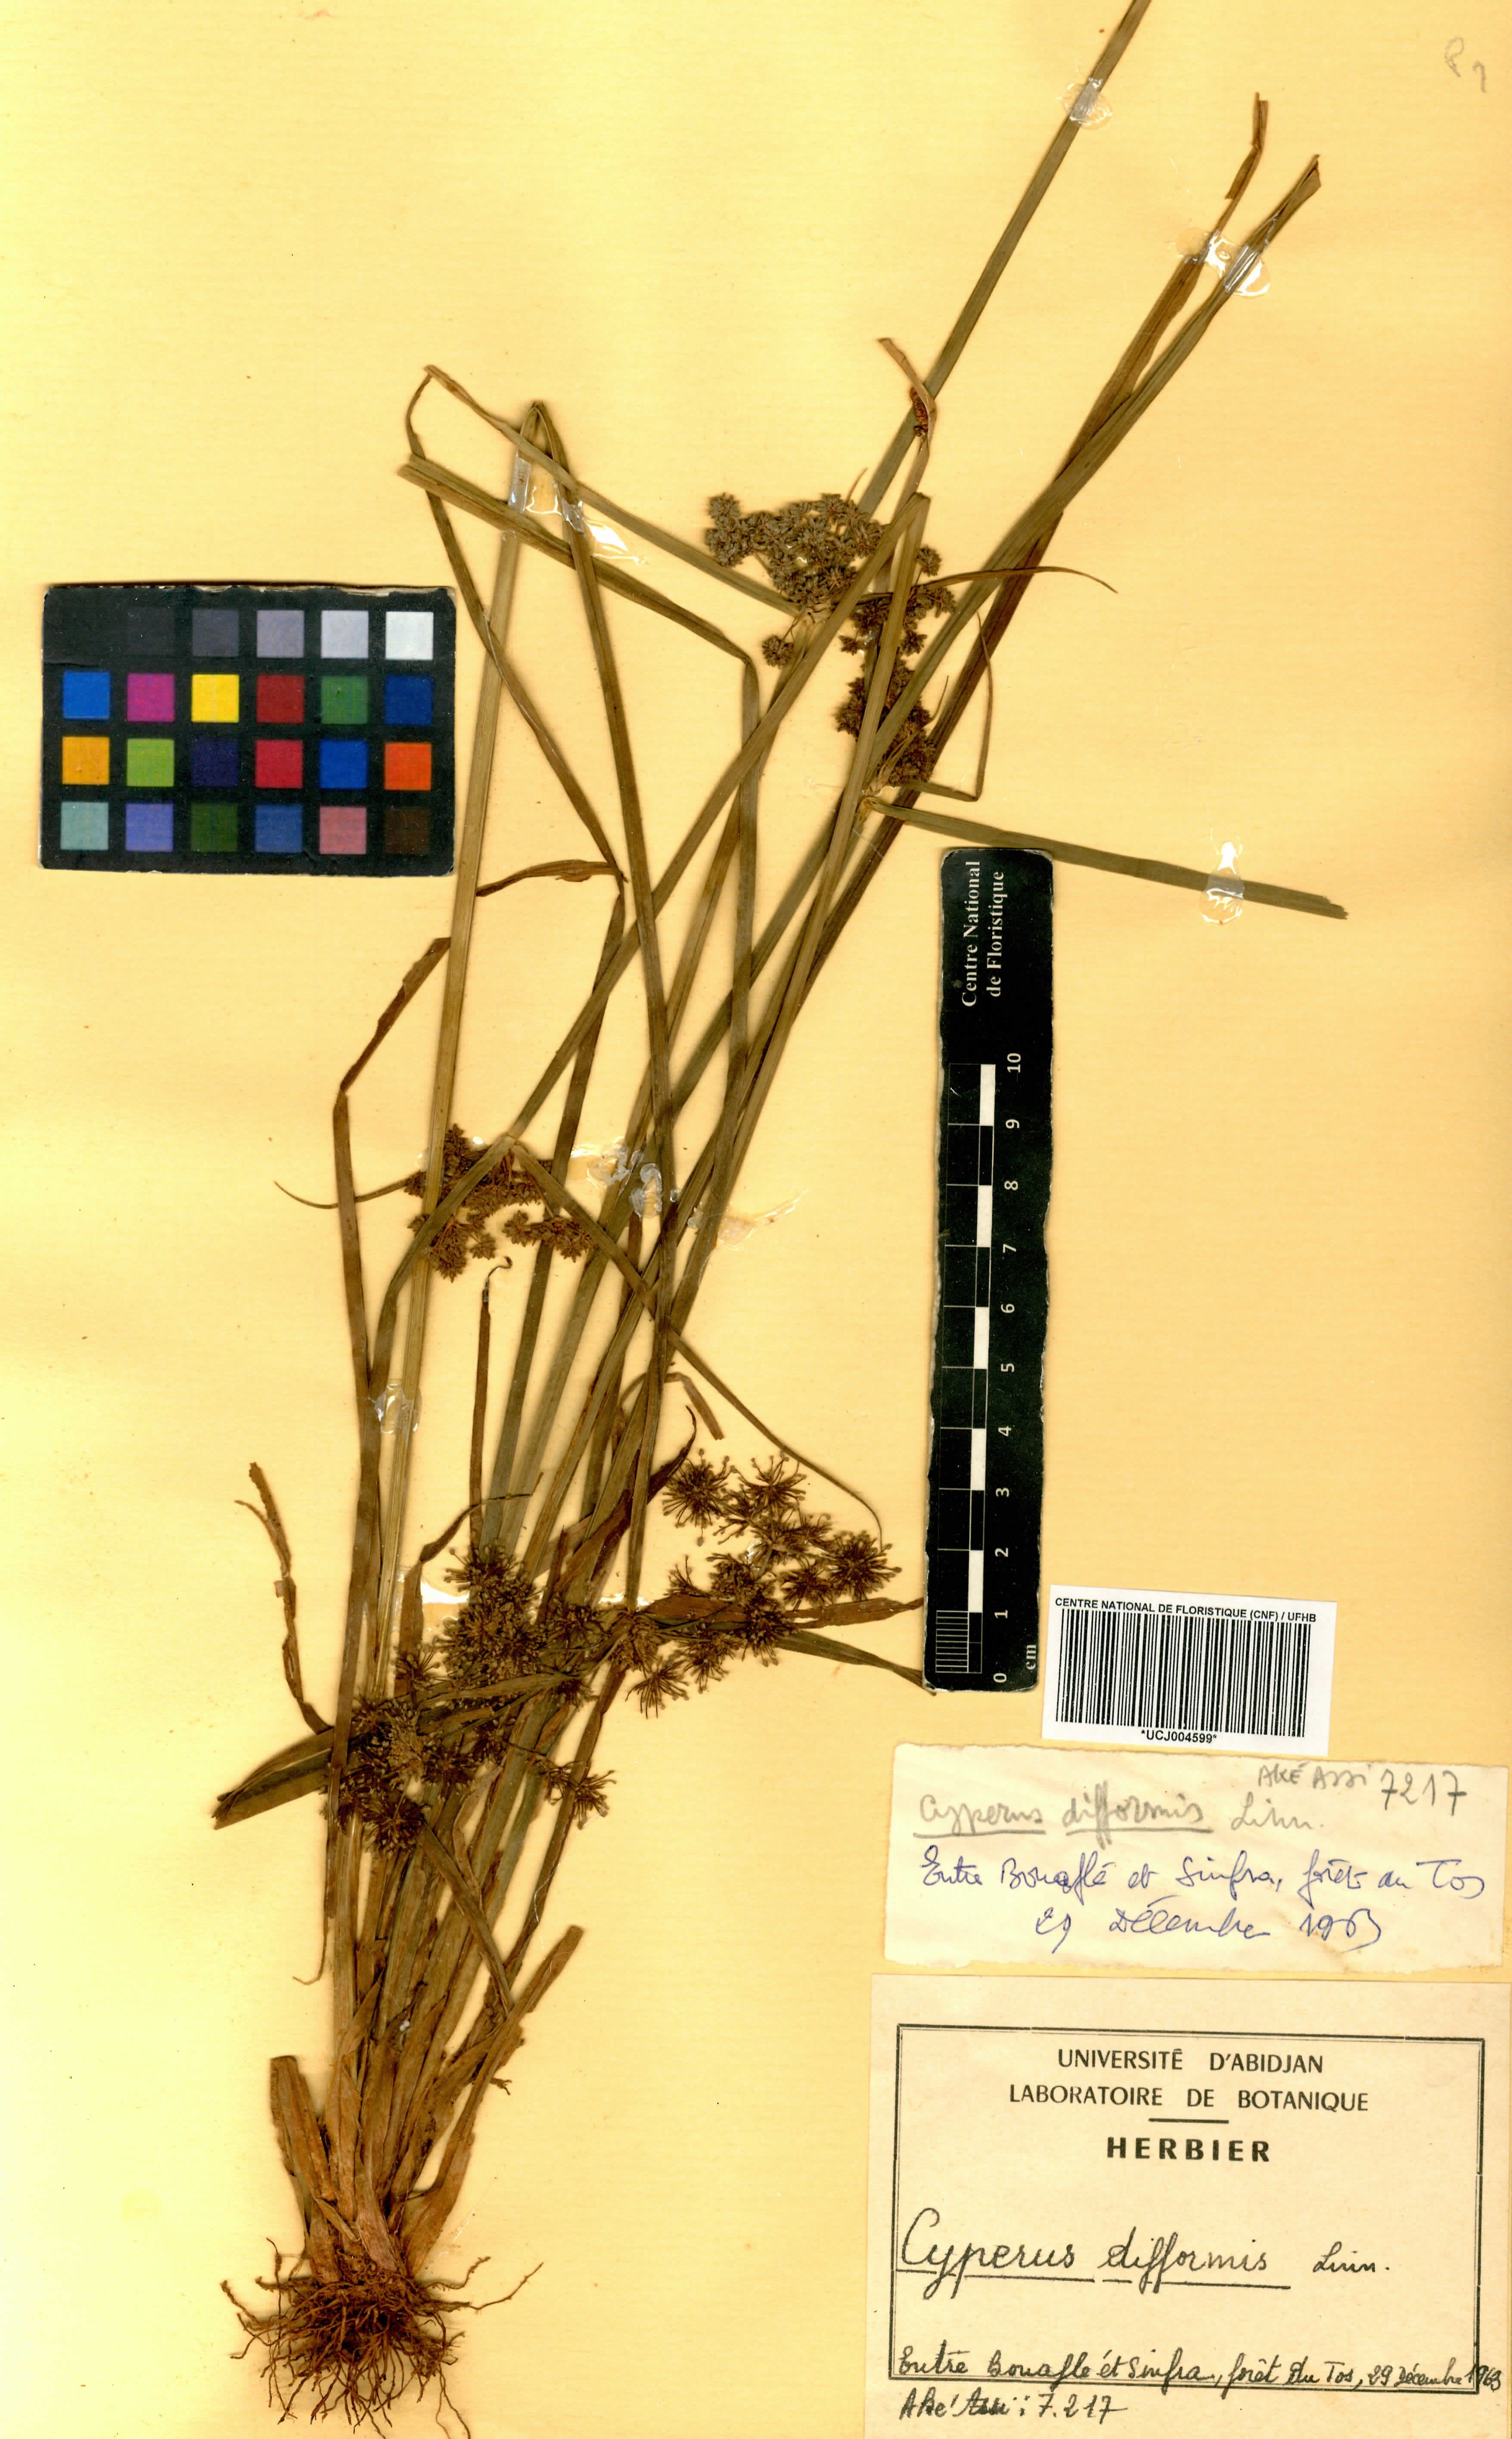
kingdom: Plantae
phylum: Tracheophyta
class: Liliopsida
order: Poales
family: Cyperaceae
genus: Cyperus
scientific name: Cyperus difformis
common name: Variable flatsedge
